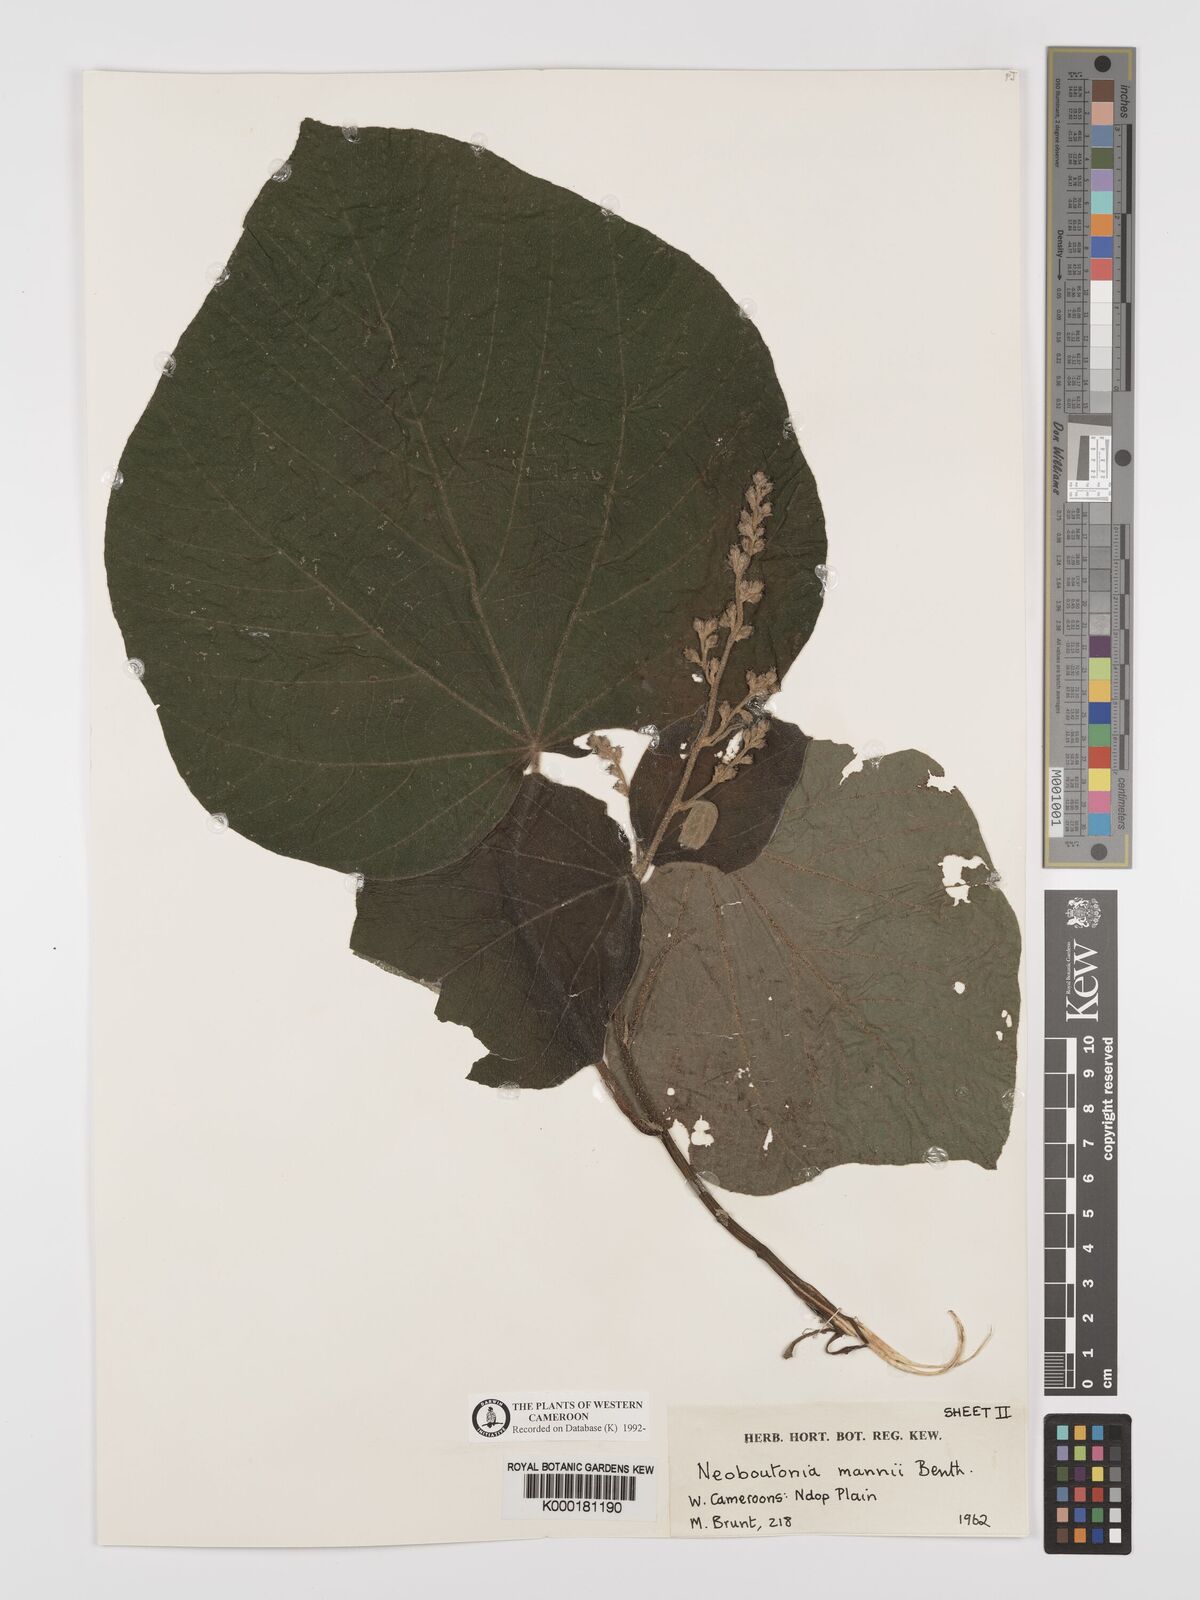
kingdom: Plantae
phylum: Tracheophyta
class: Magnoliopsida
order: Malpighiales
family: Euphorbiaceae
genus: Neoboutonia
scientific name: Neoboutonia mannii
